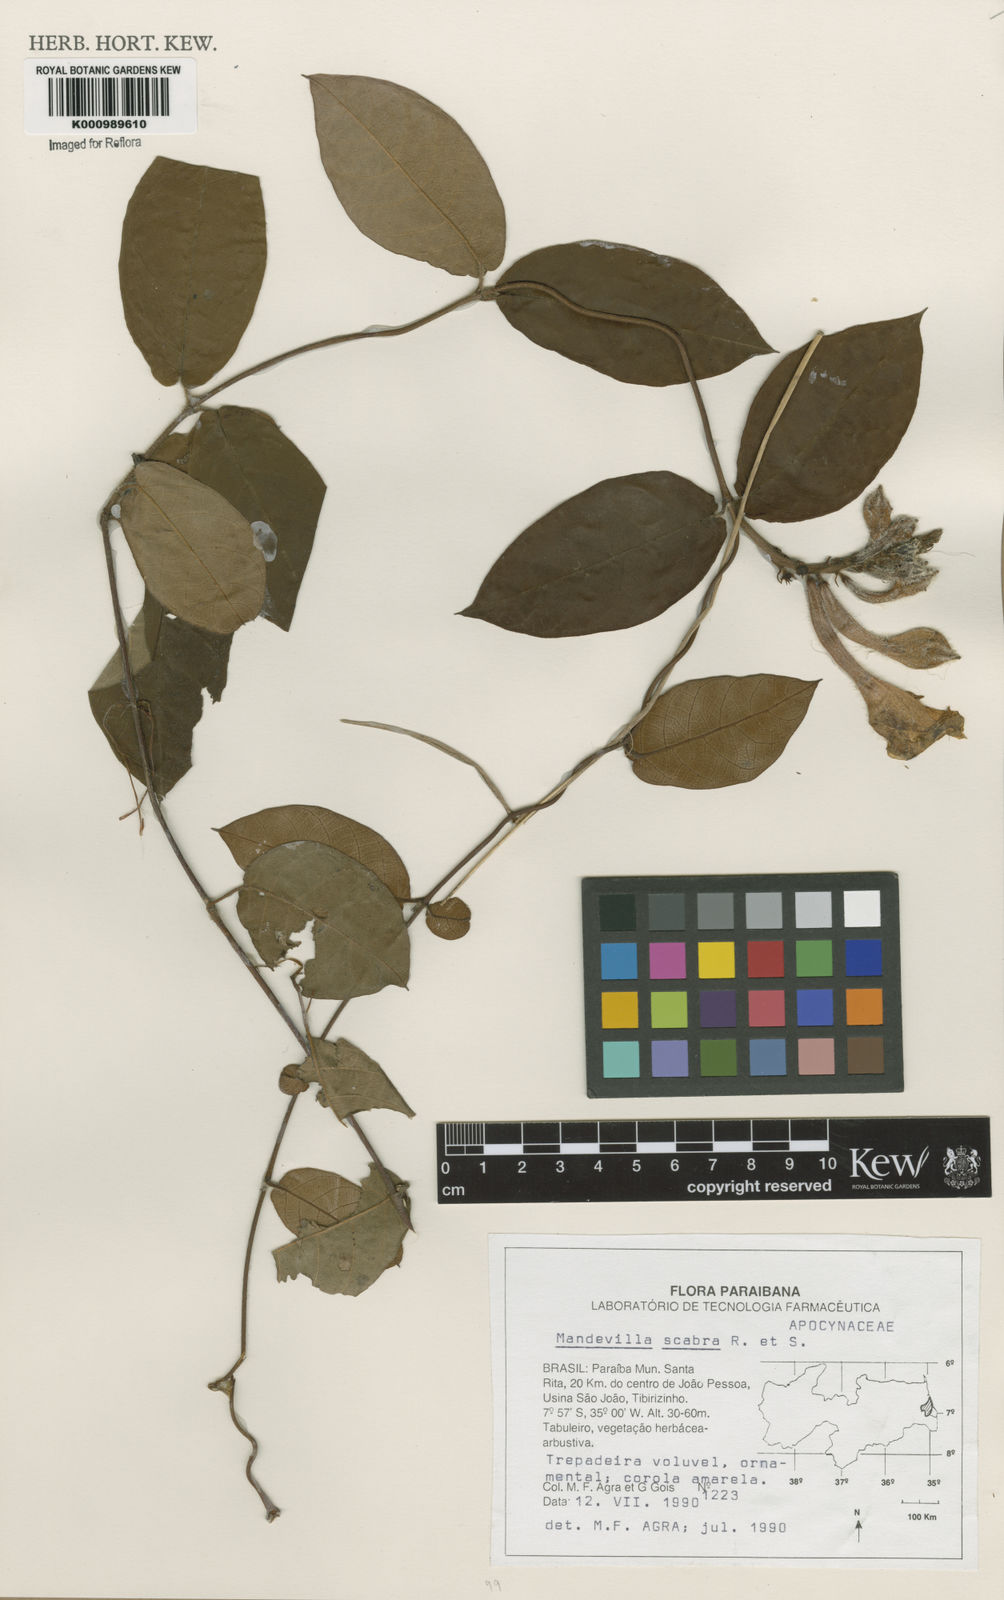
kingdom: Plantae
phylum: Tracheophyta
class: Magnoliopsida
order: Gentianales
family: Apocynaceae
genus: Mandevilla
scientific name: Mandevilla scabra
